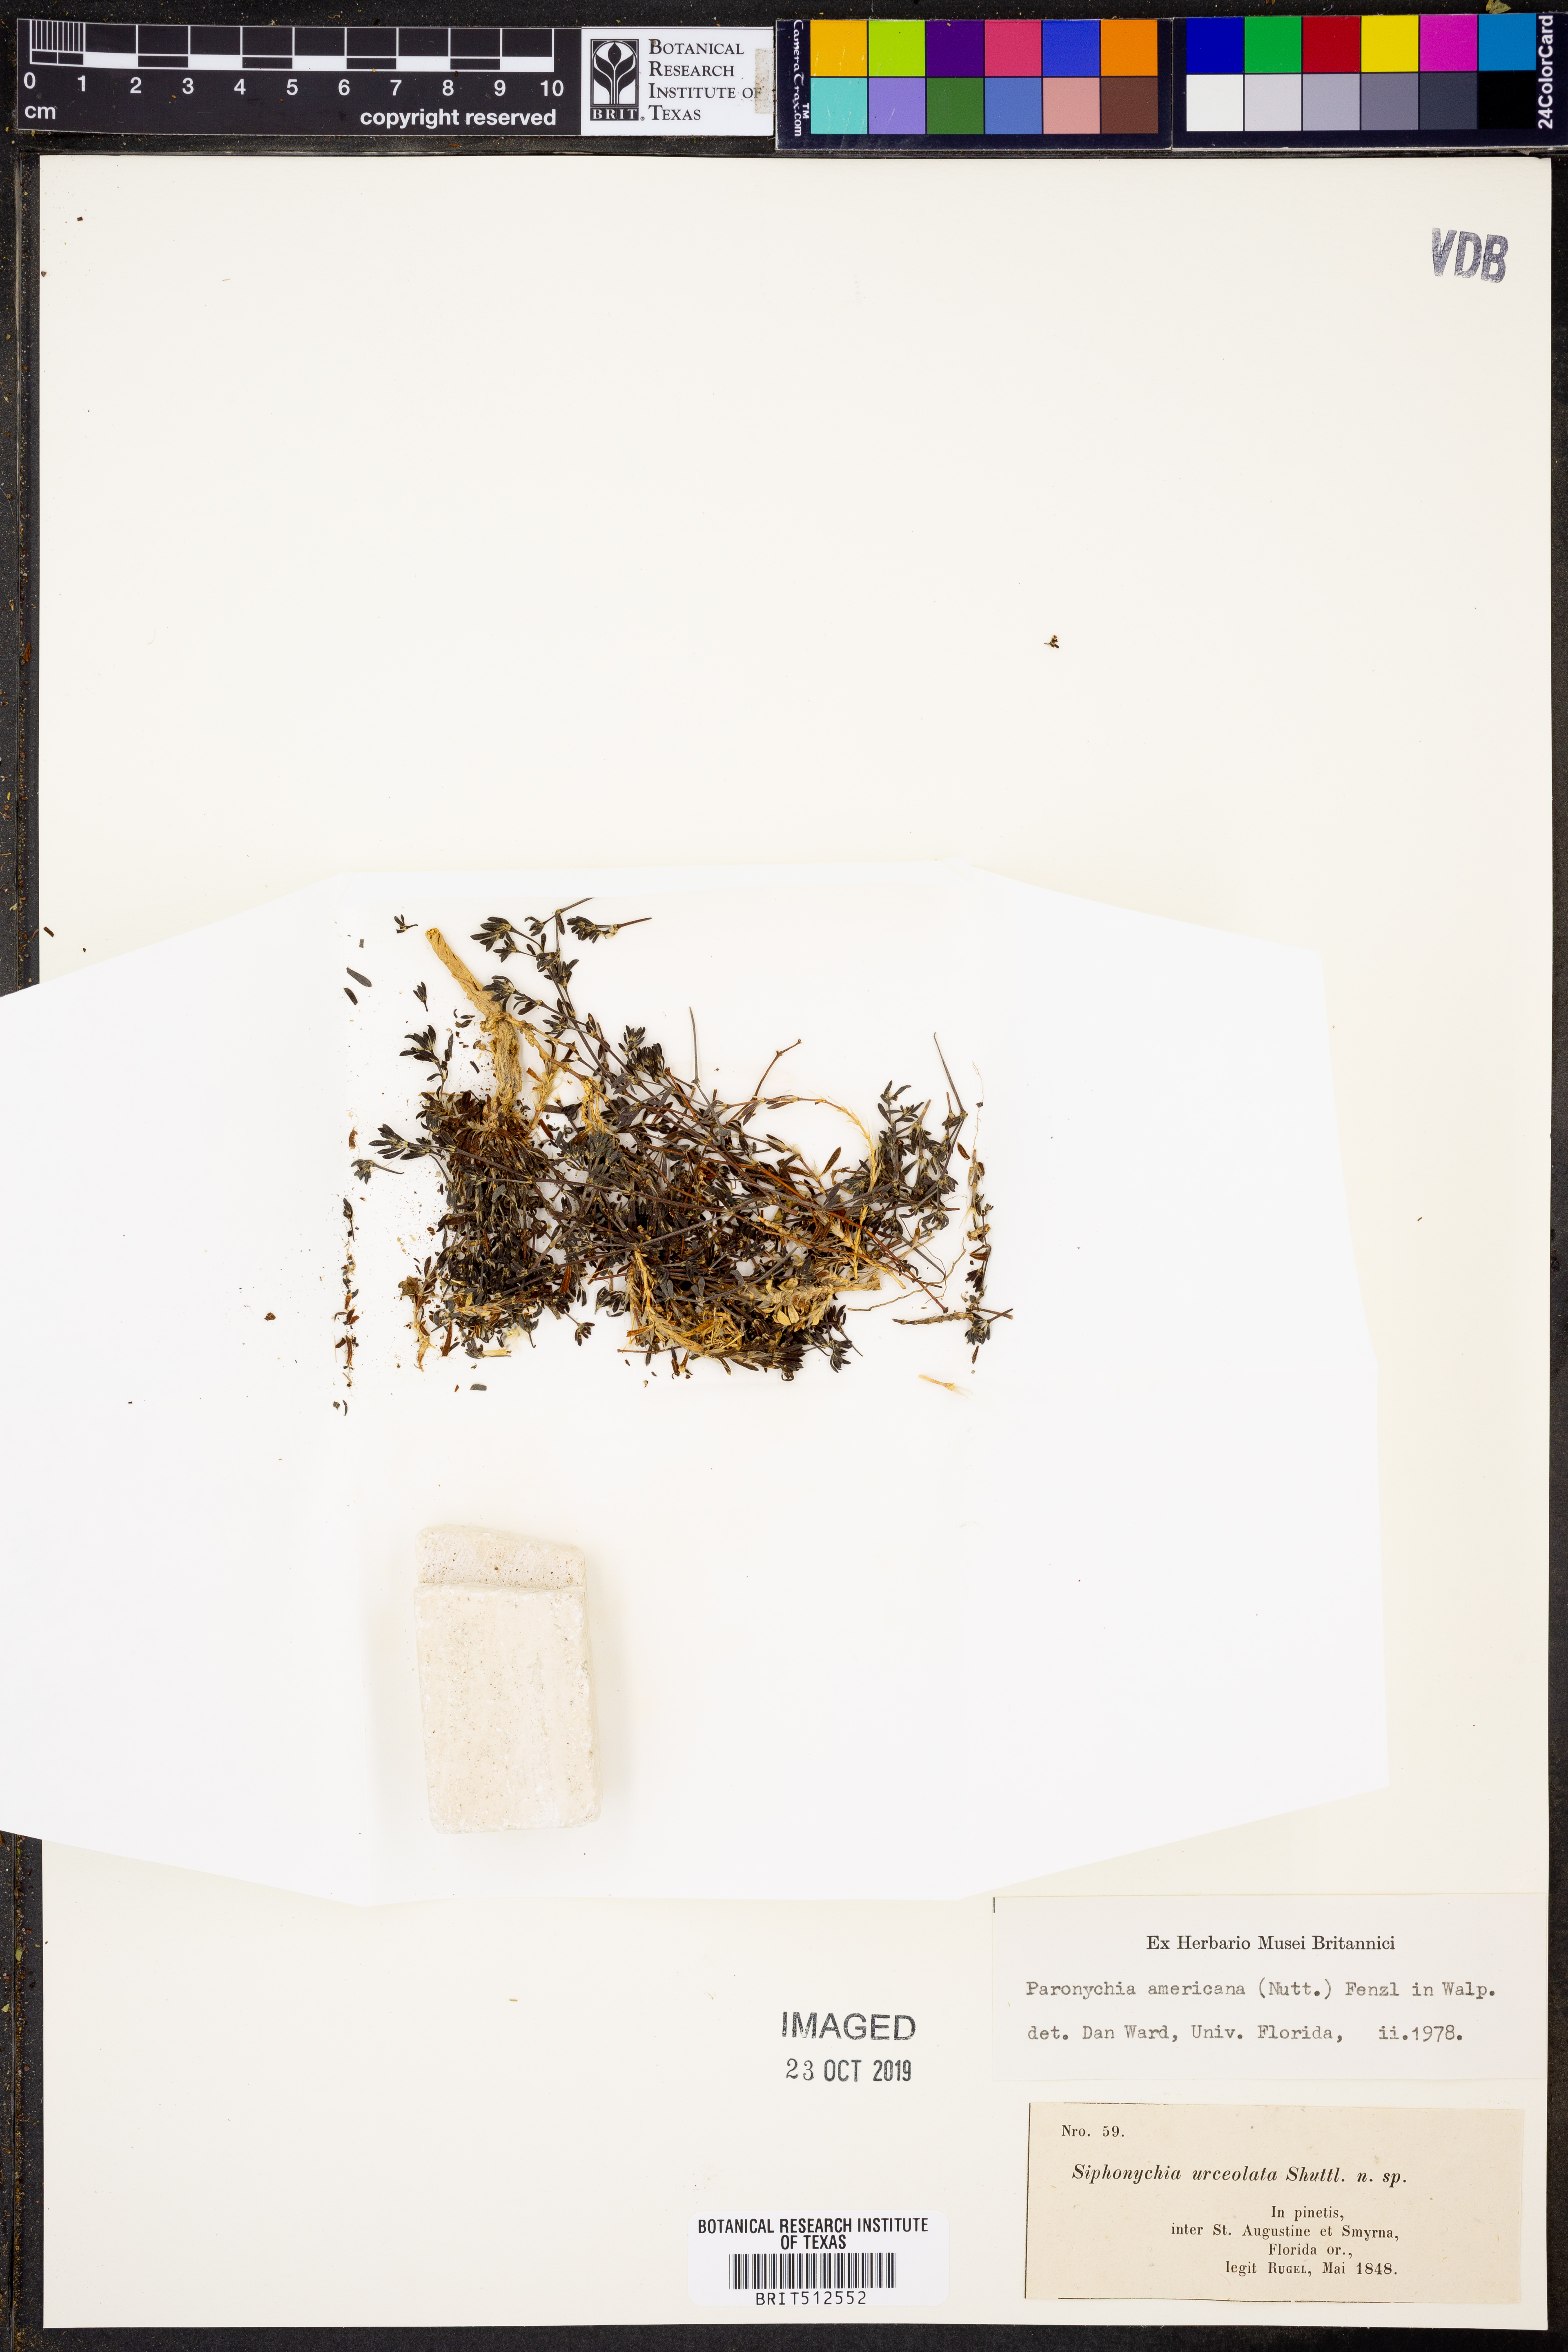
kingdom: Plantae
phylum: Tracheophyta
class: Magnoliopsida
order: Caryophyllales
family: Caryophyllaceae
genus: Paronychia
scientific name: Paronychia americana
